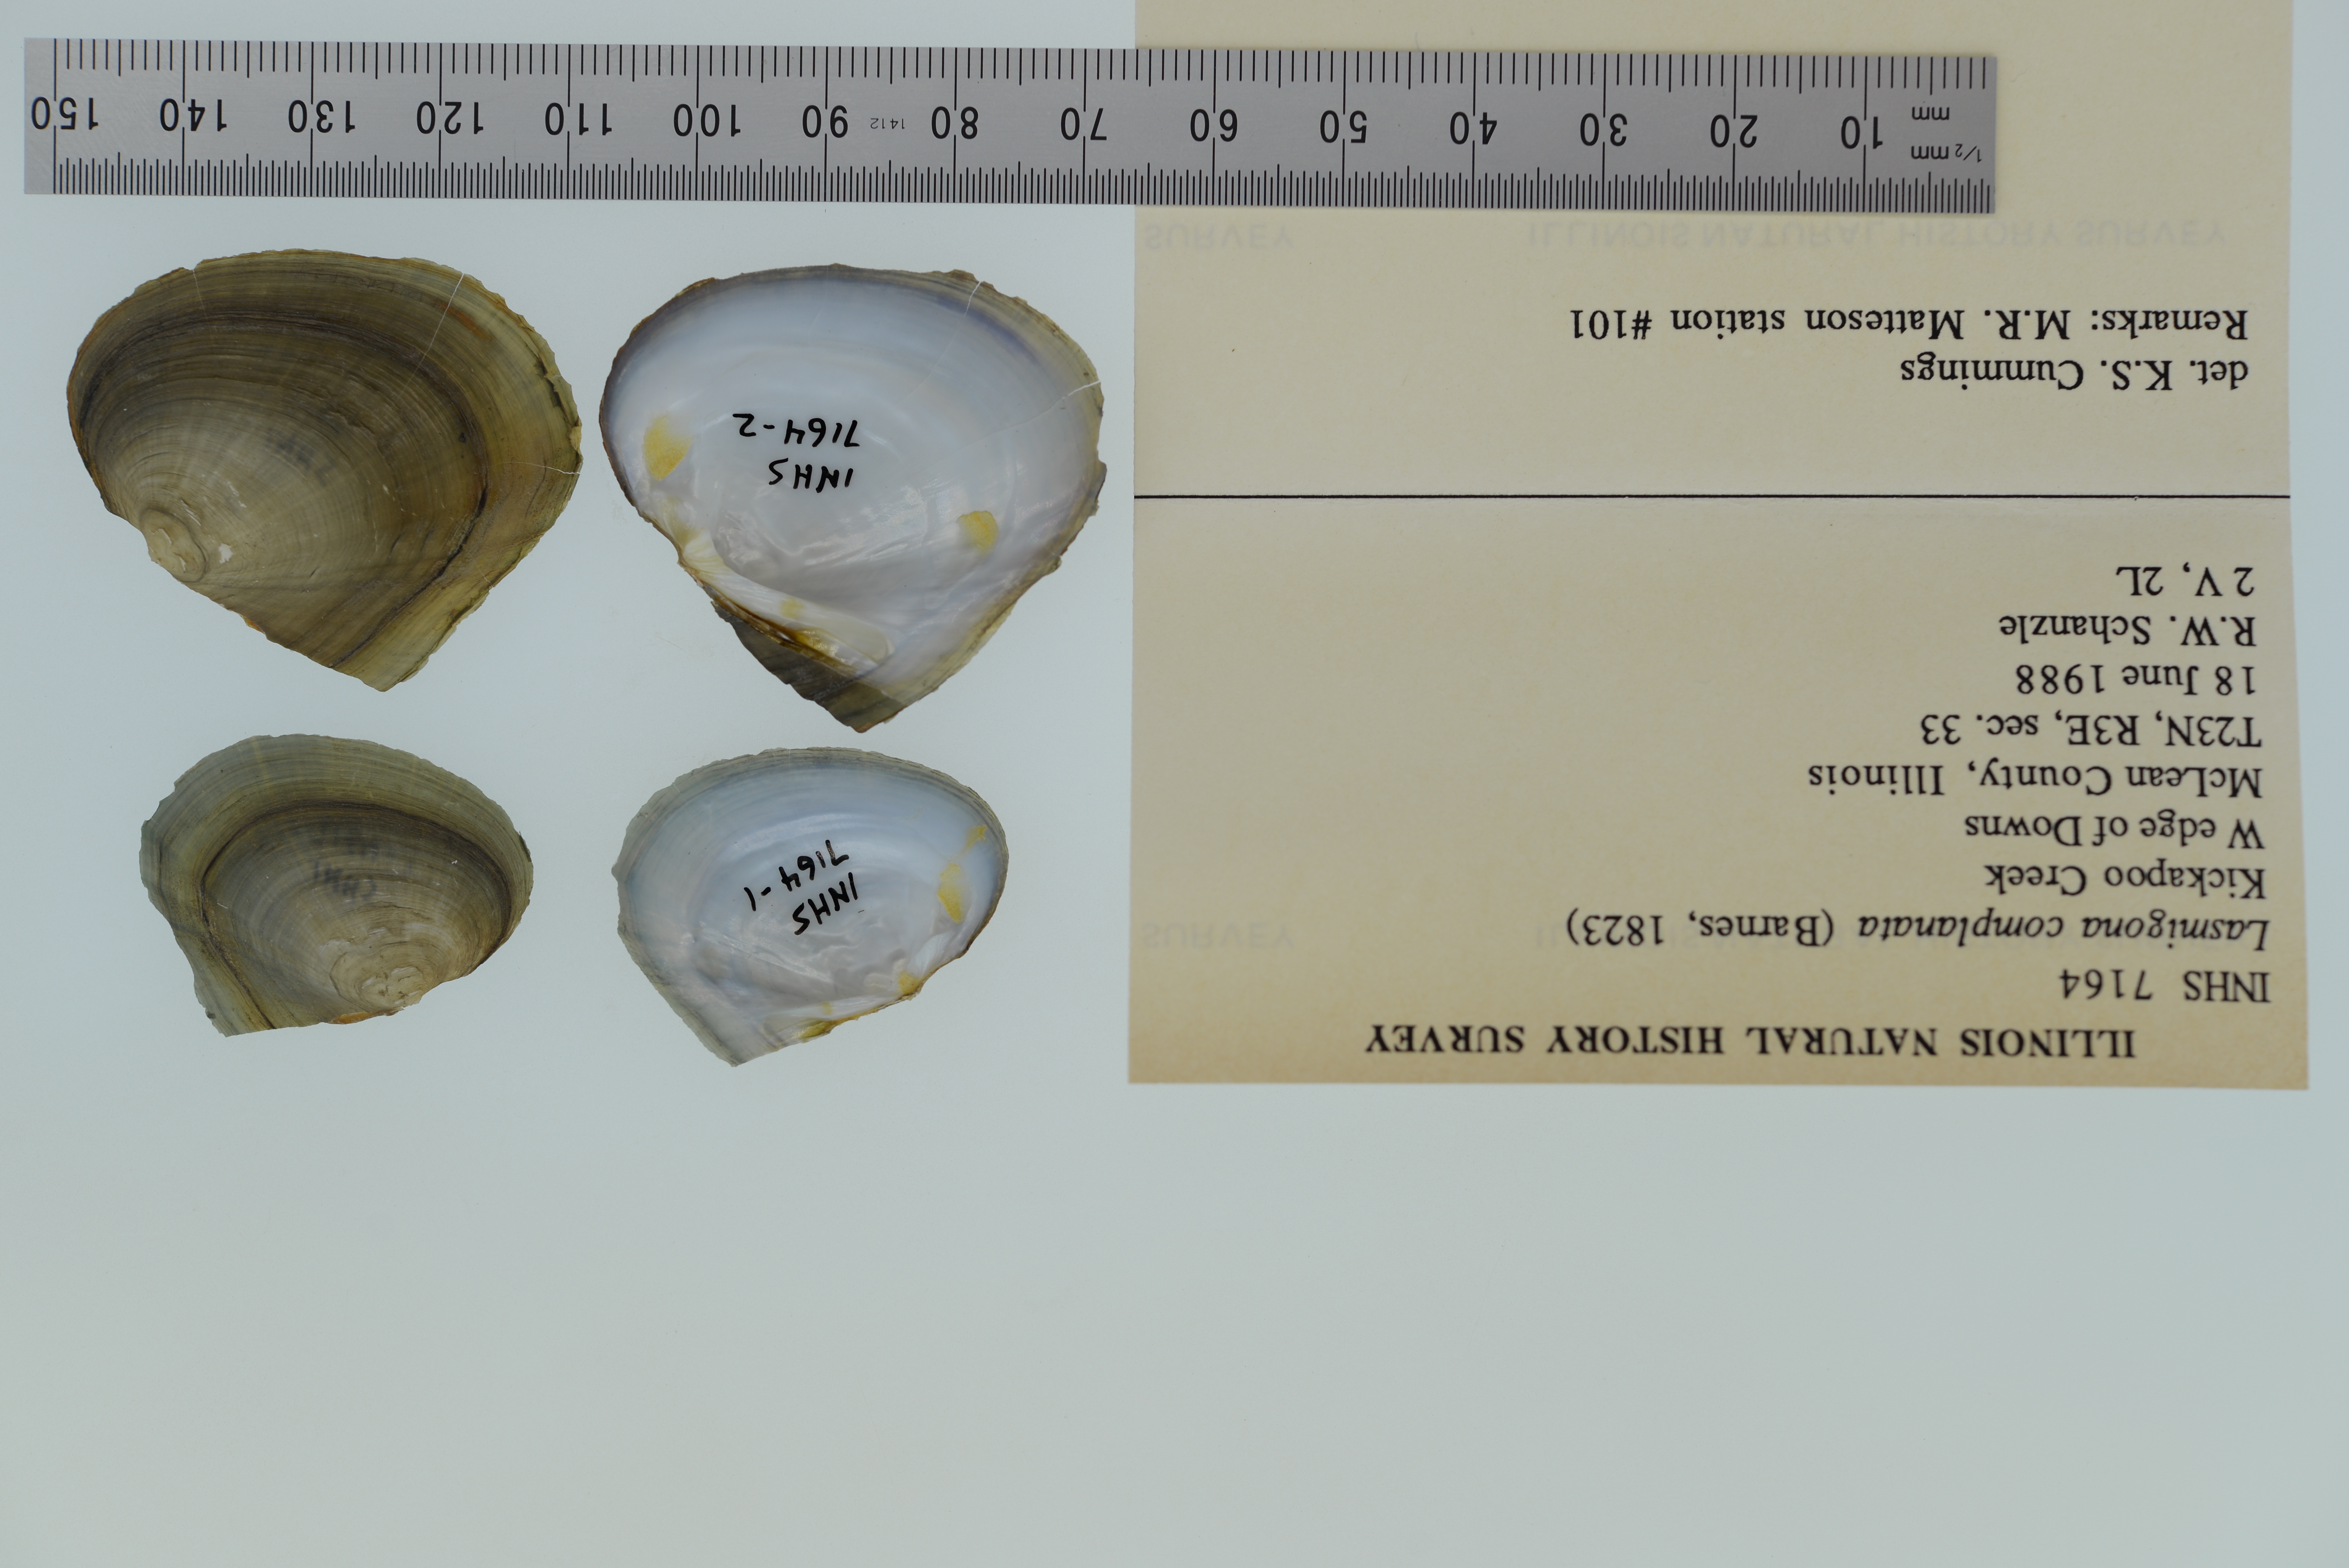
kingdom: Animalia
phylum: Mollusca
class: Bivalvia
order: Unionida
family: Unionidae
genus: Lasmigona
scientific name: Lasmigona complanata
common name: White heelsplitter
